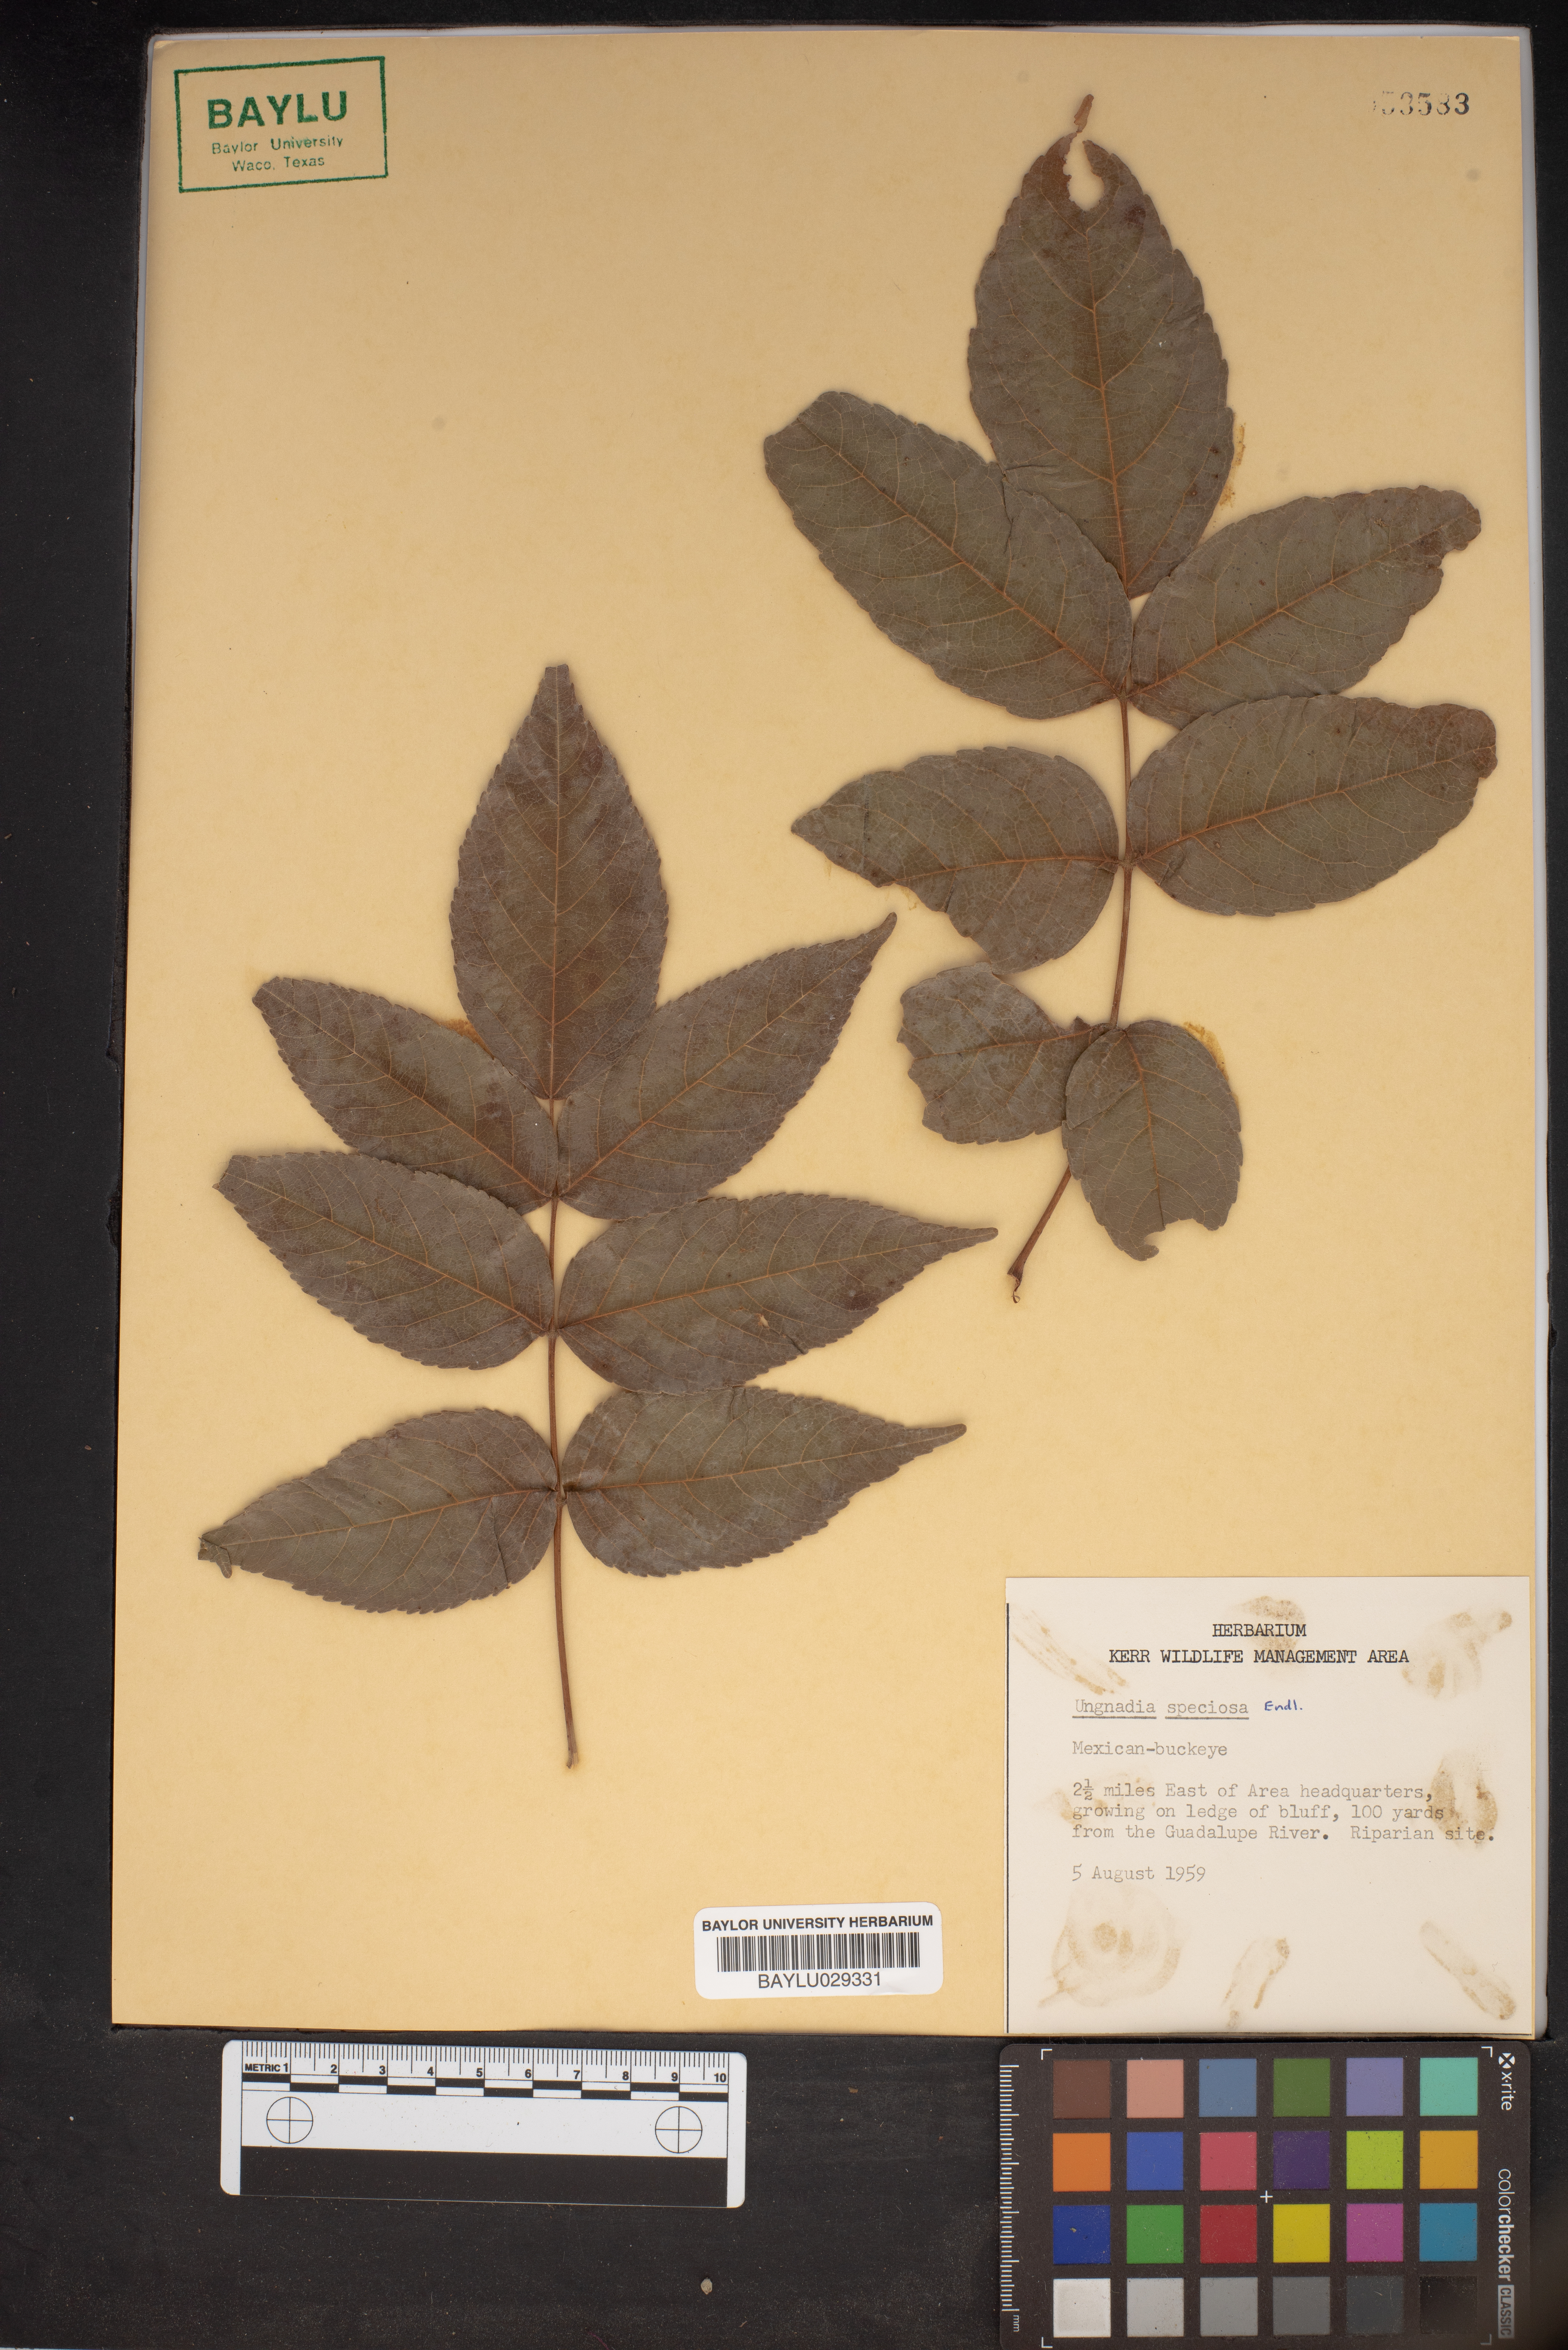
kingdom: Plantae
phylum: Tracheophyta
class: Magnoliopsida
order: Sapindales
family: Sapindaceae
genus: Ungnadia
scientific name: Ungnadia speciosa
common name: Texas-buckeye
